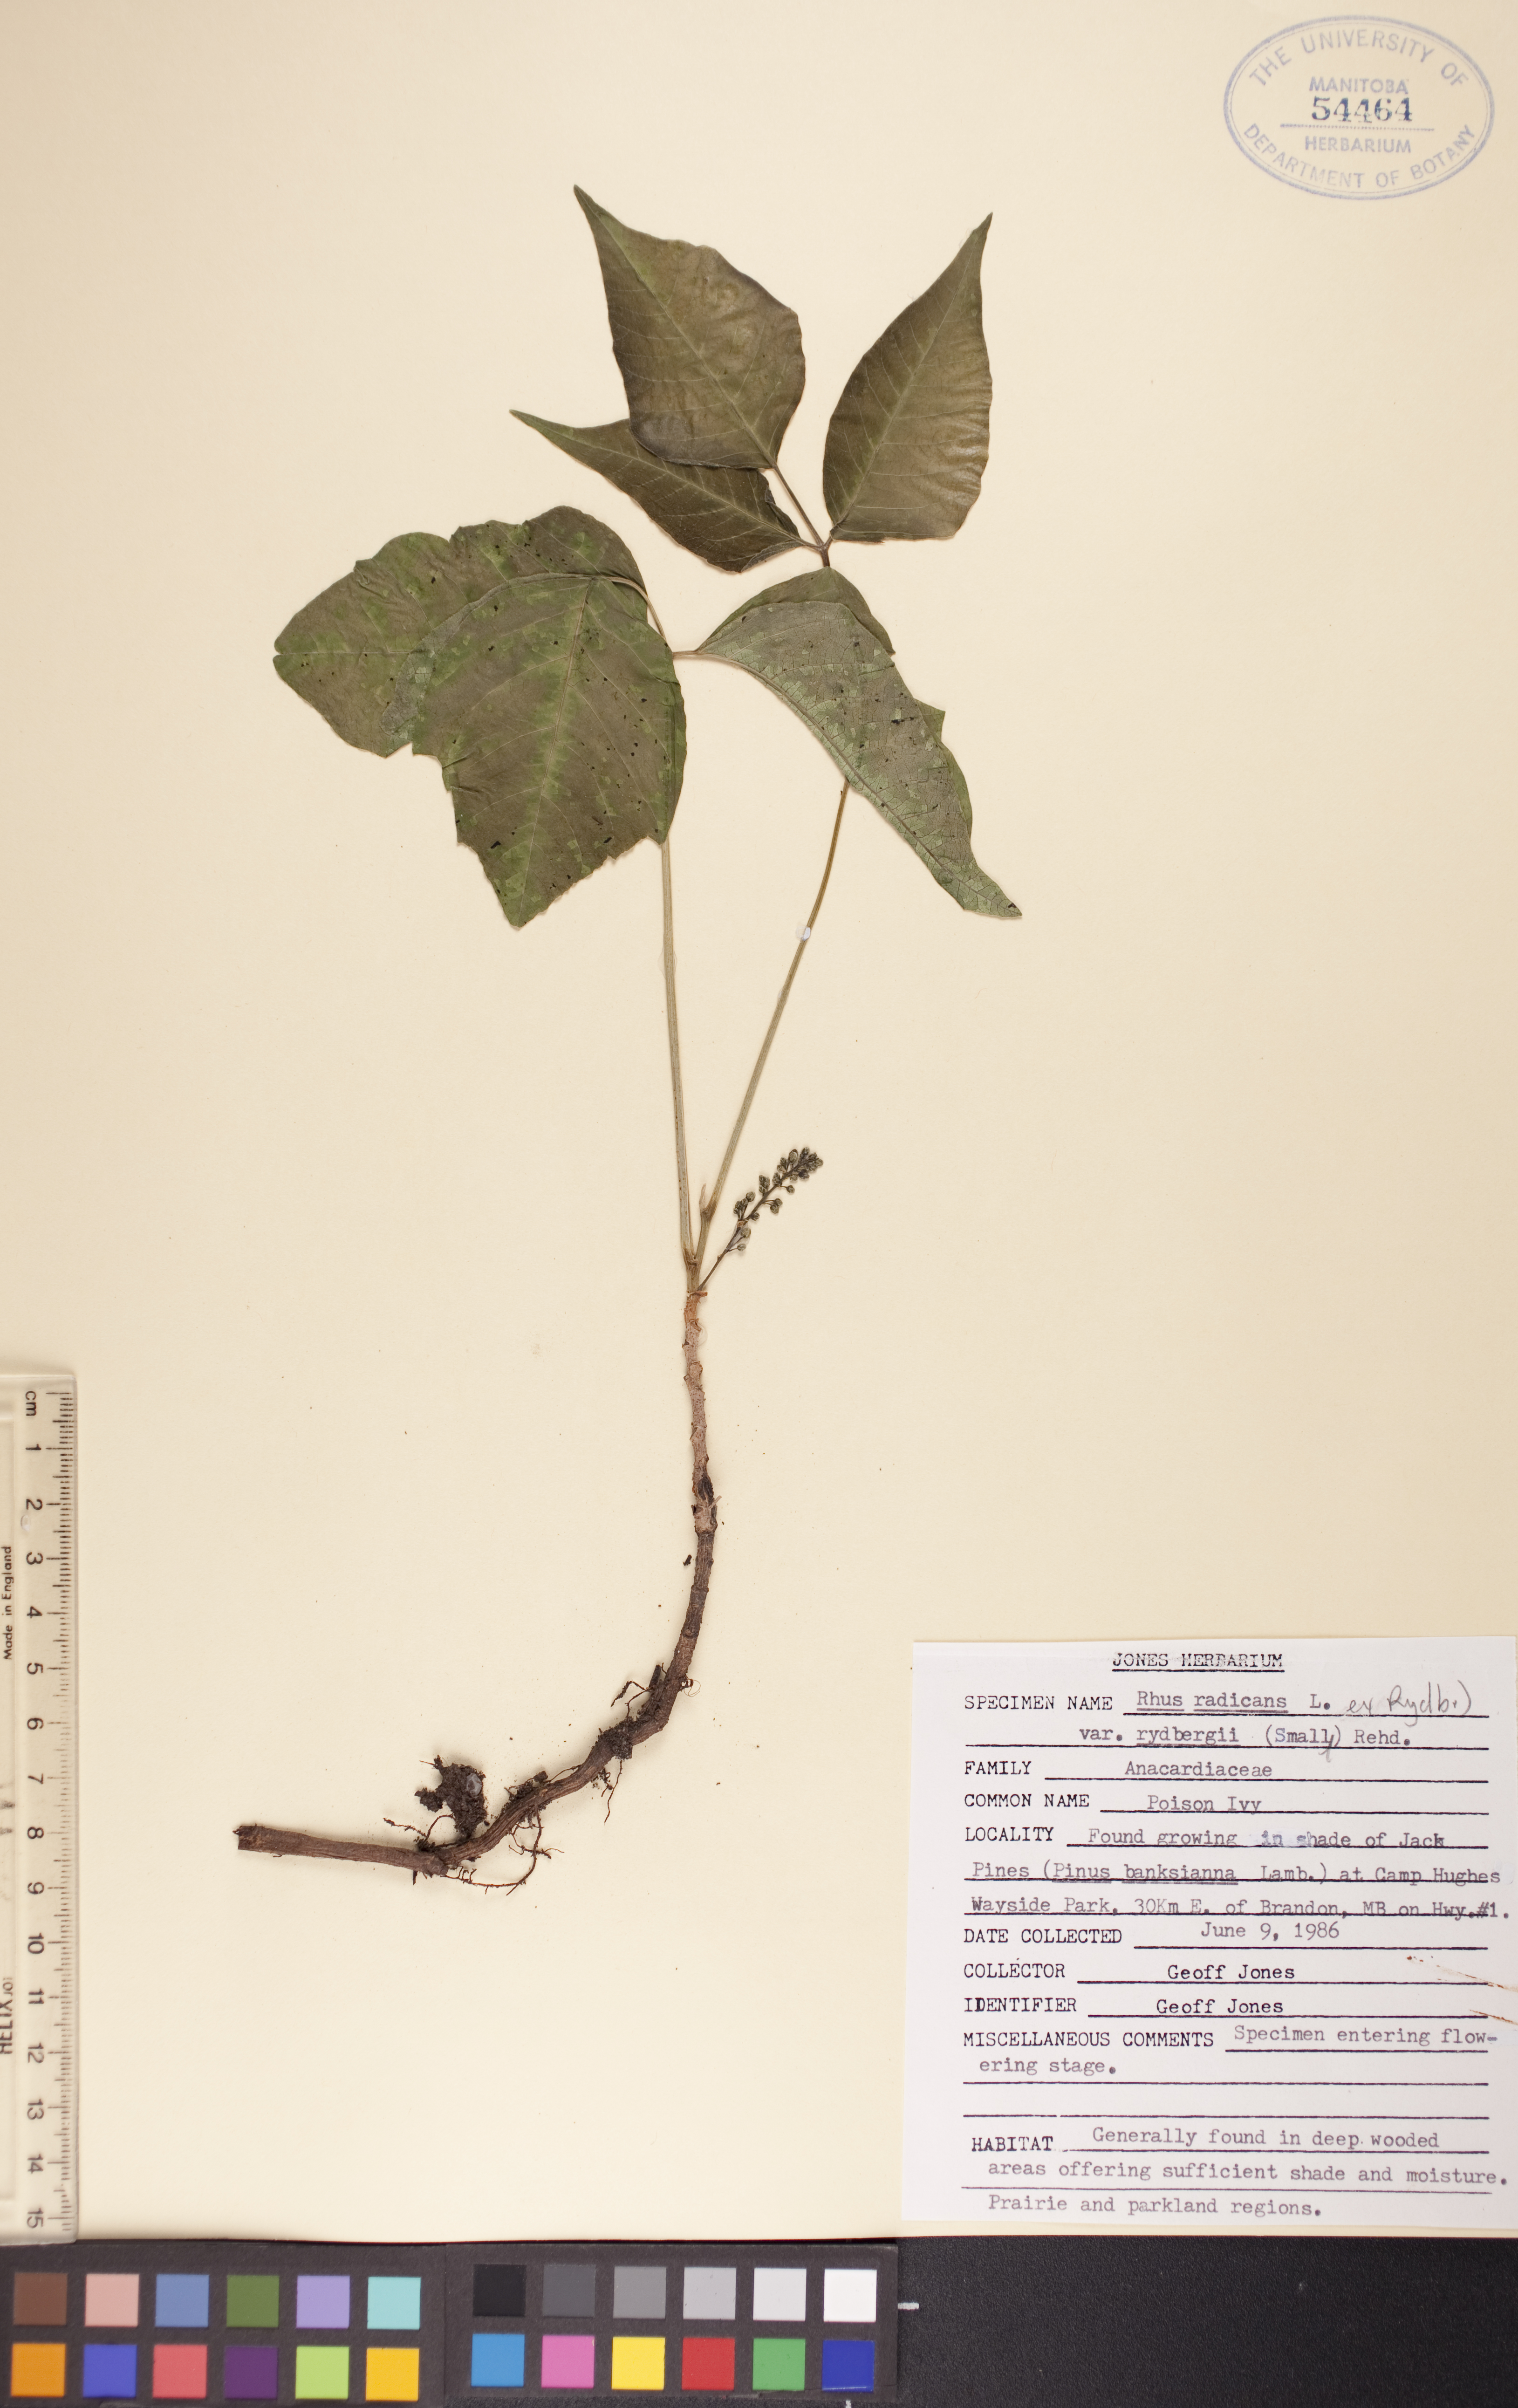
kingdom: Plantae
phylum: Tracheophyta
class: Magnoliopsida
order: Sapindales
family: Anacardiaceae
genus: Toxicodendron
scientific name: Toxicodendron rydbergii
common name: Rydberg's poison-ivy
